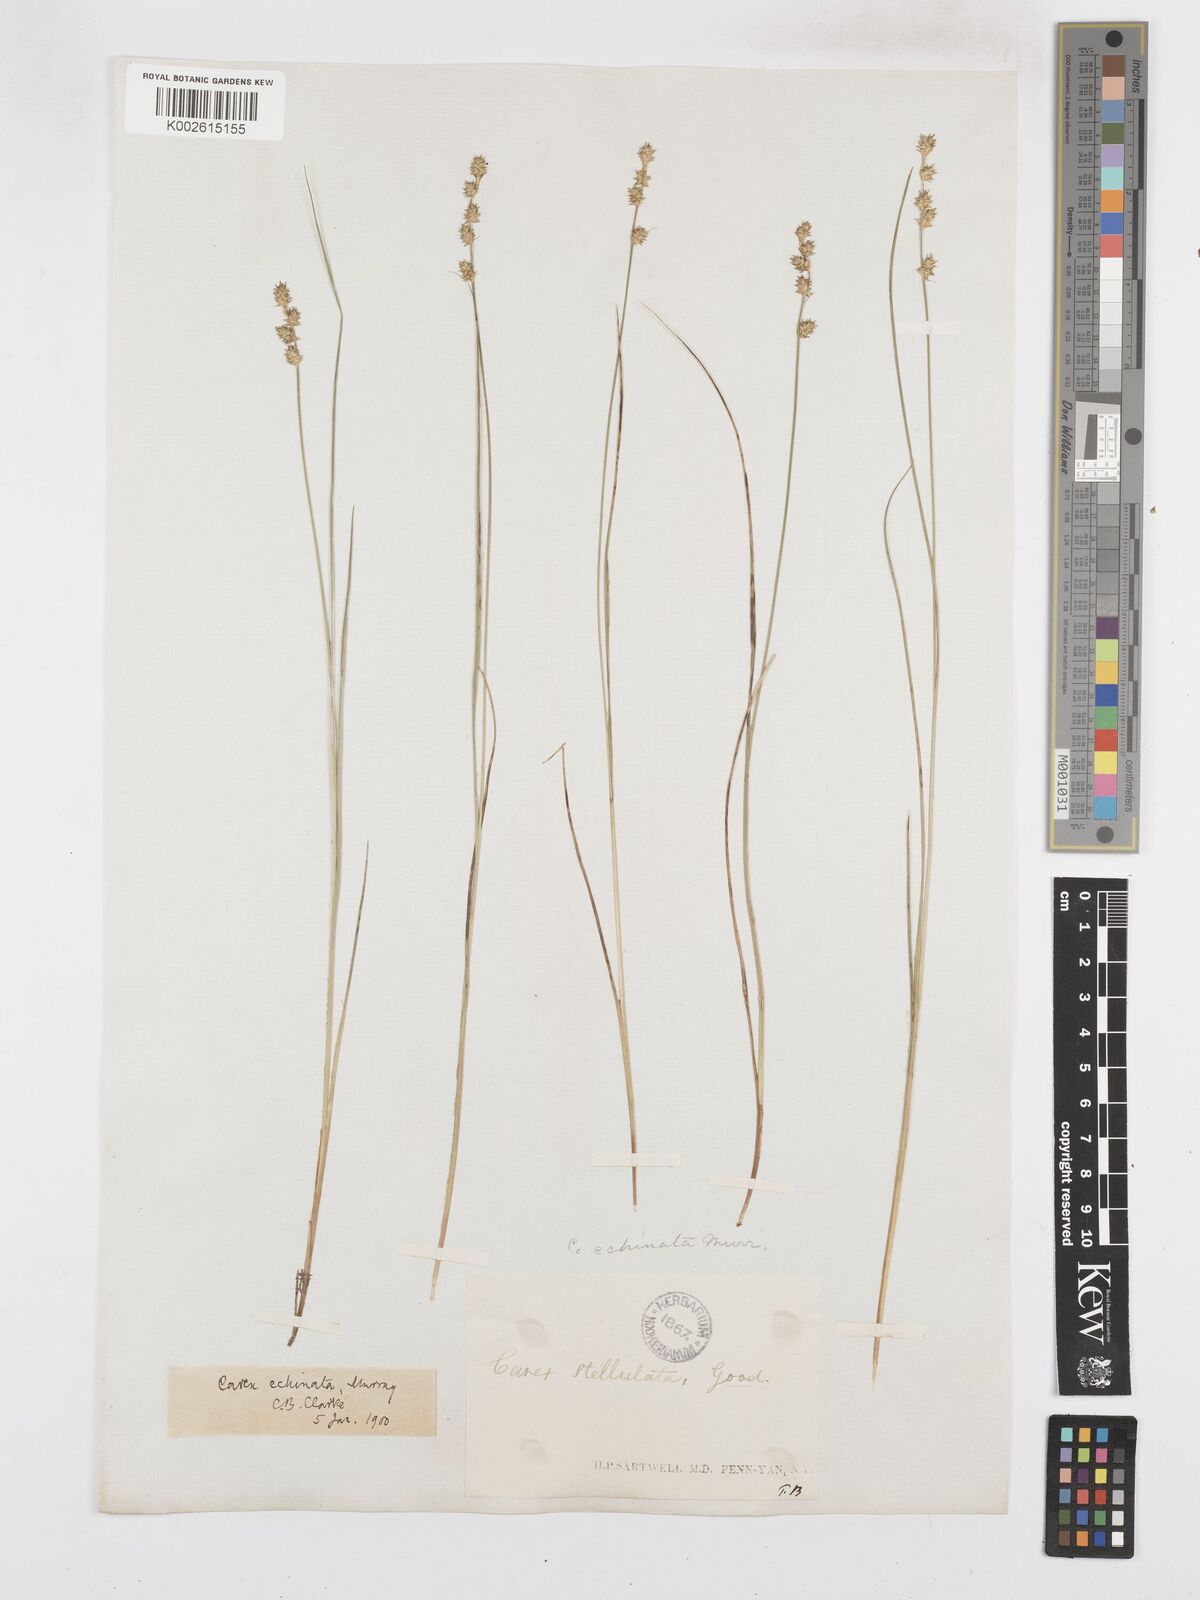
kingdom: Plantae
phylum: Tracheophyta
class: Liliopsida
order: Poales
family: Cyperaceae
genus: Carex
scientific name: Carex echinata
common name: Star sedge
